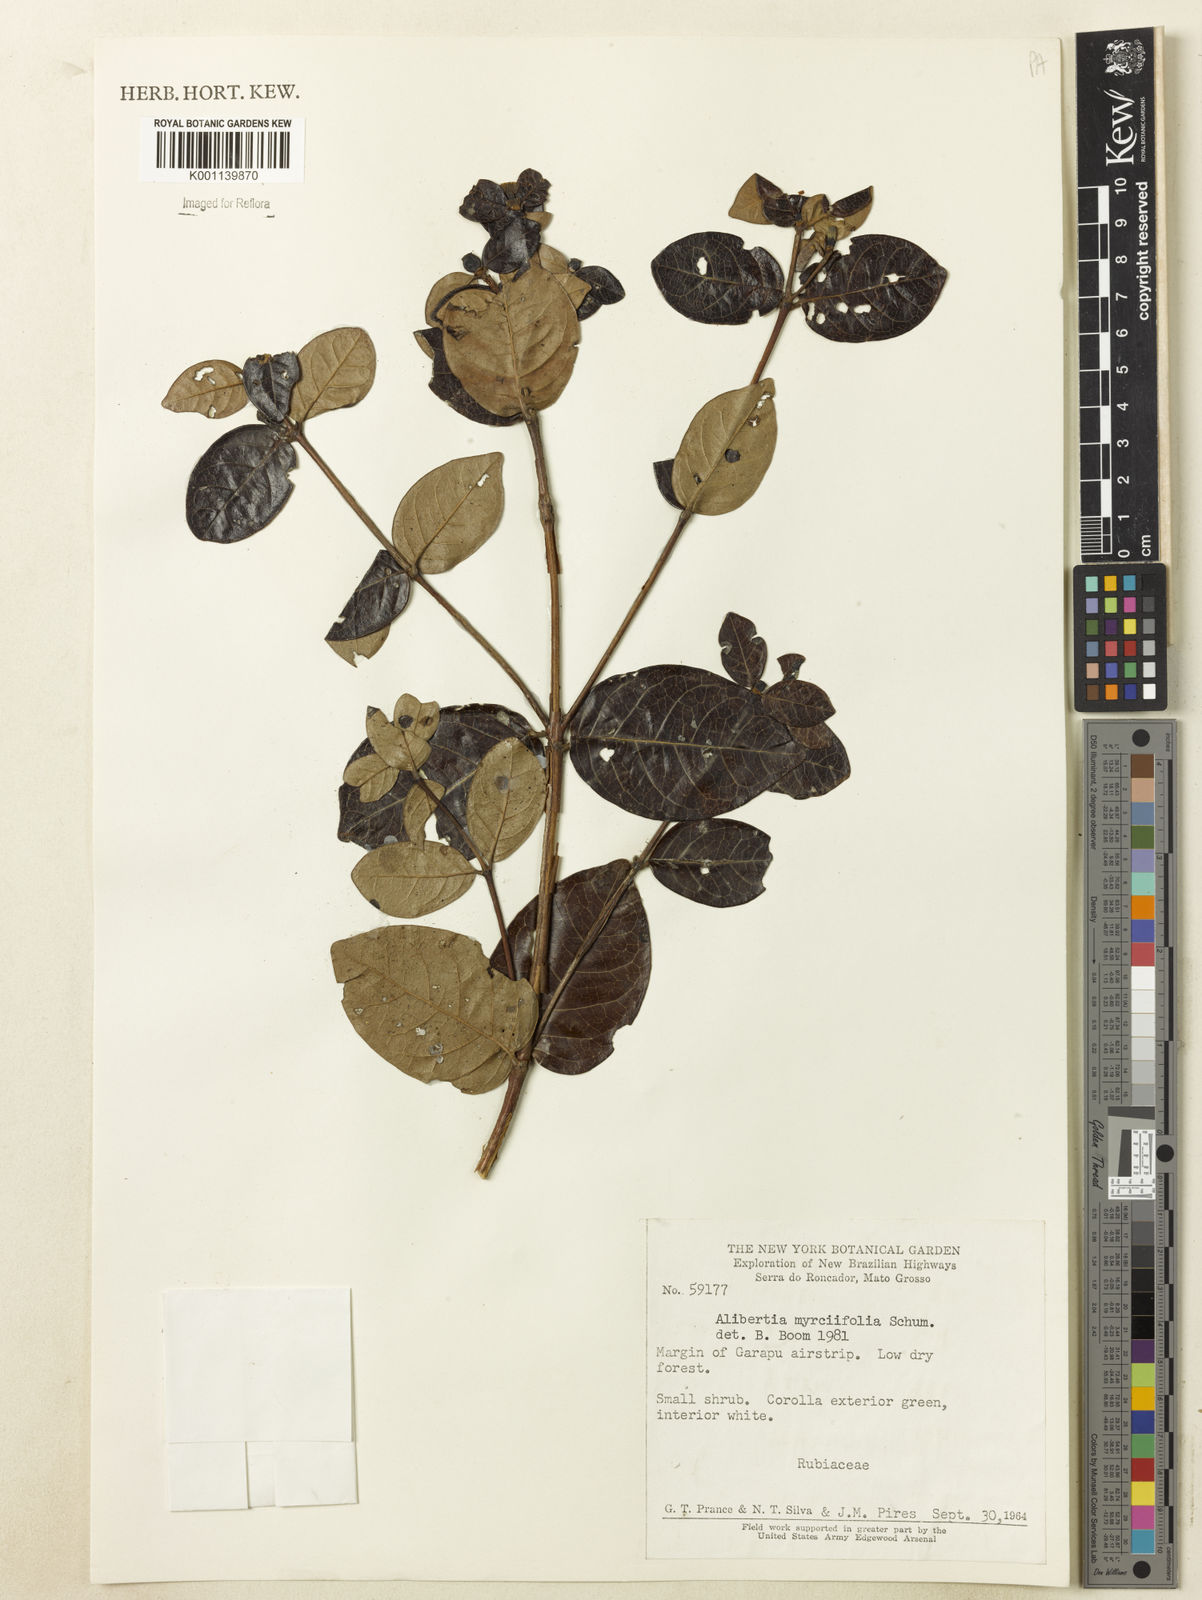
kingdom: Plantae
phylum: Tracheophyta
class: Magnoliopsida
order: Gentianales
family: Rubiaceae
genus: Cordiera
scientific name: Cordiera obtusa
